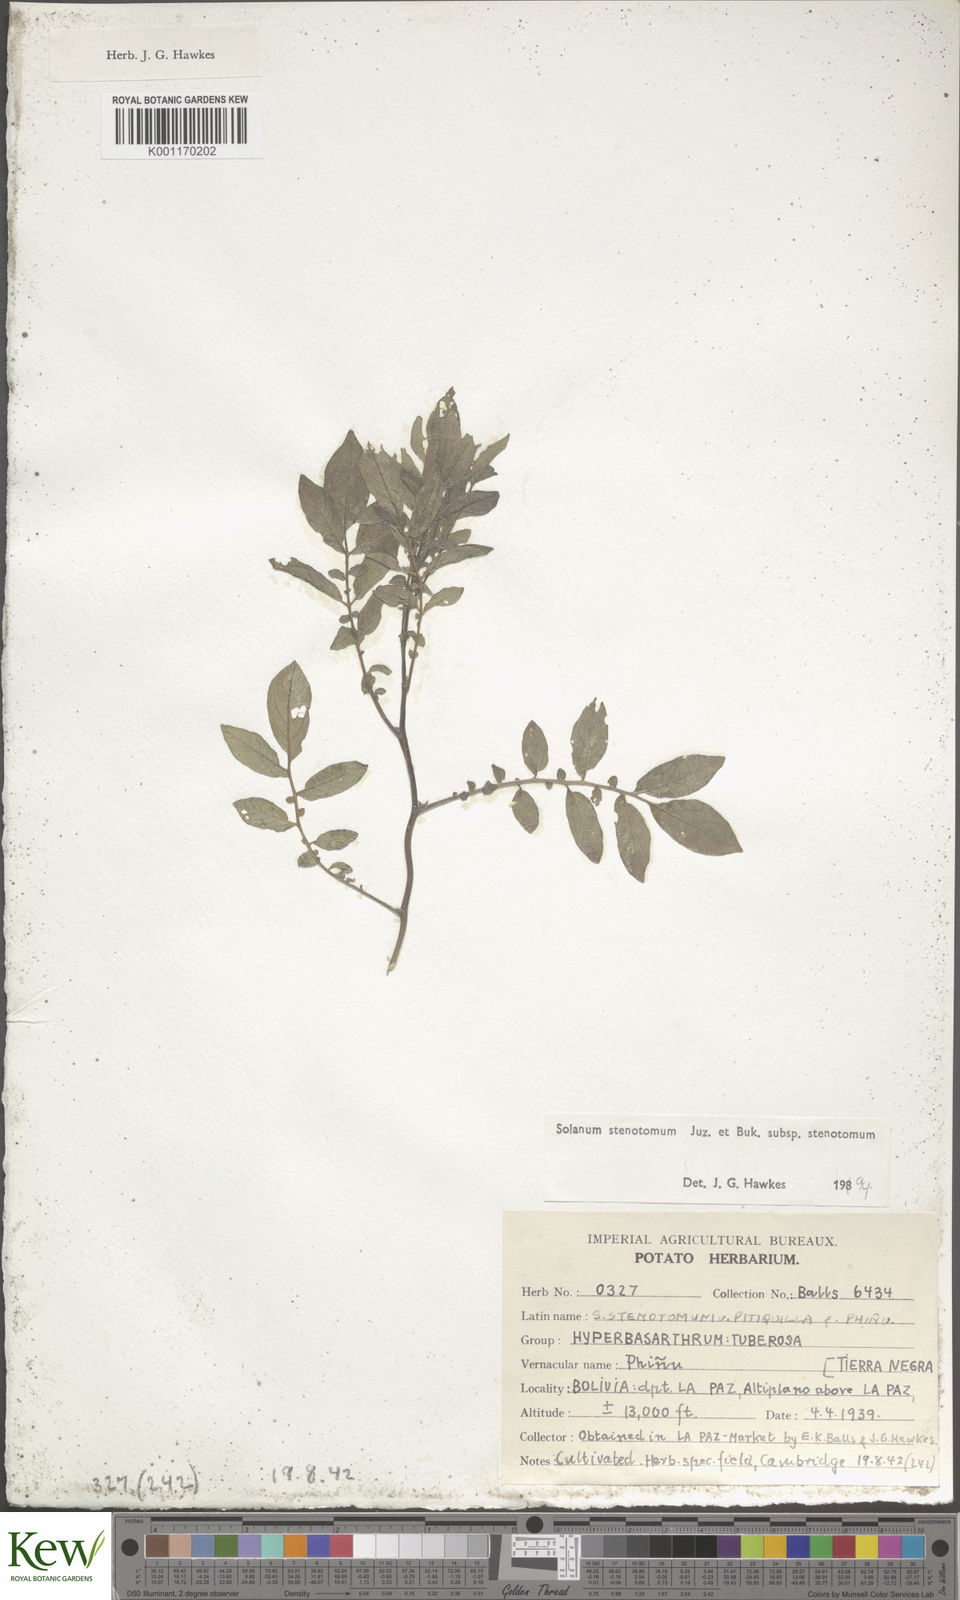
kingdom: Plantae
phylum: Tracheophyta
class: Magnoliopsida
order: Solanales
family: Solanaceae
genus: Solanum
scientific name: Solanum tuberosum
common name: Potato
